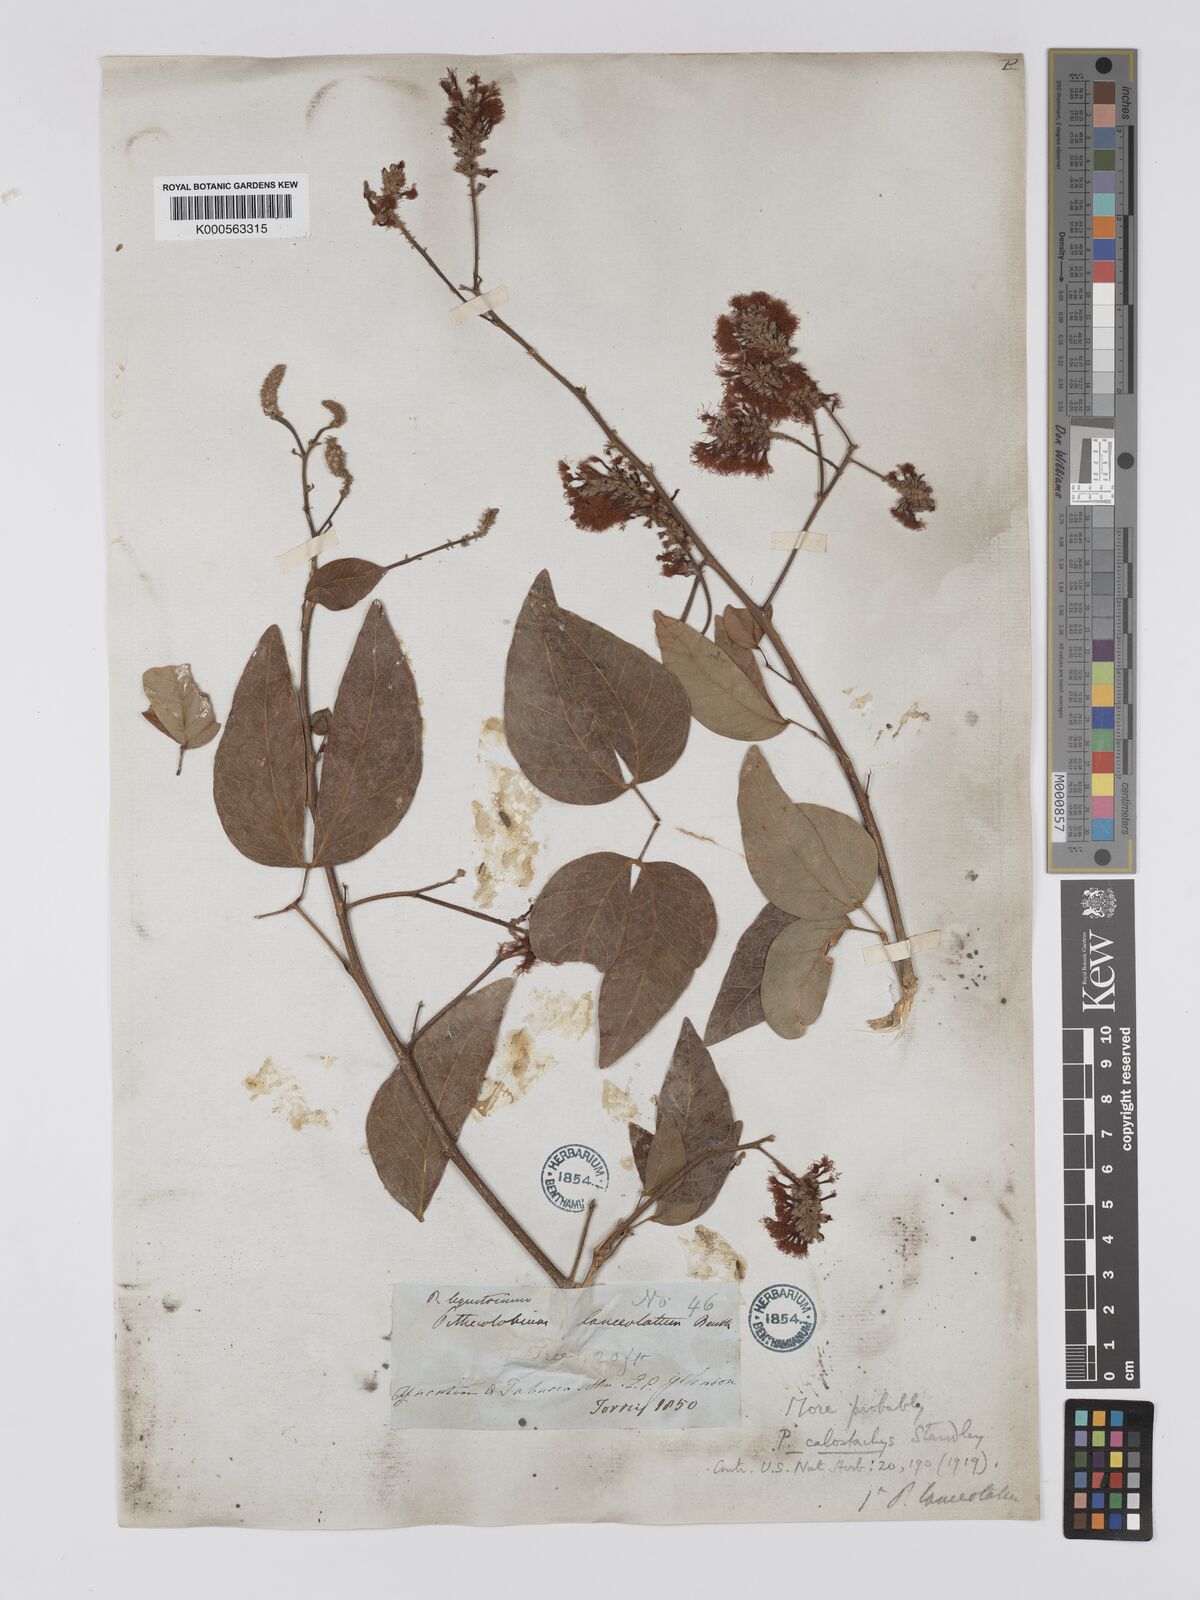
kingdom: Plantae
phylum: Tracheophyta
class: Magnoliopsida
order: Fabales
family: Fabaceae
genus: Pithecellobium
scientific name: Pithecellobium lanceolatum
